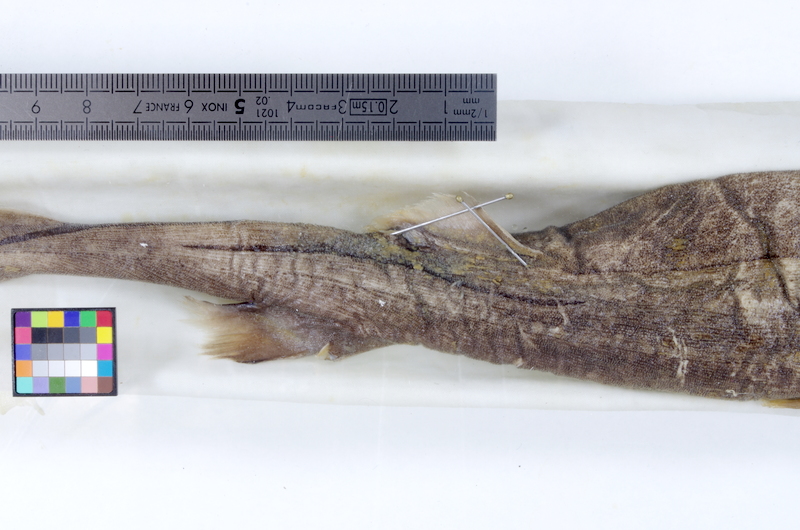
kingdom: Animalia
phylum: Chordata
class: Elasmobranchii
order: Squaliformes
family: Etmopteridae
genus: Etmopterus
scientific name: Etmopterus lucifer
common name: Blackbelly lanternshark
